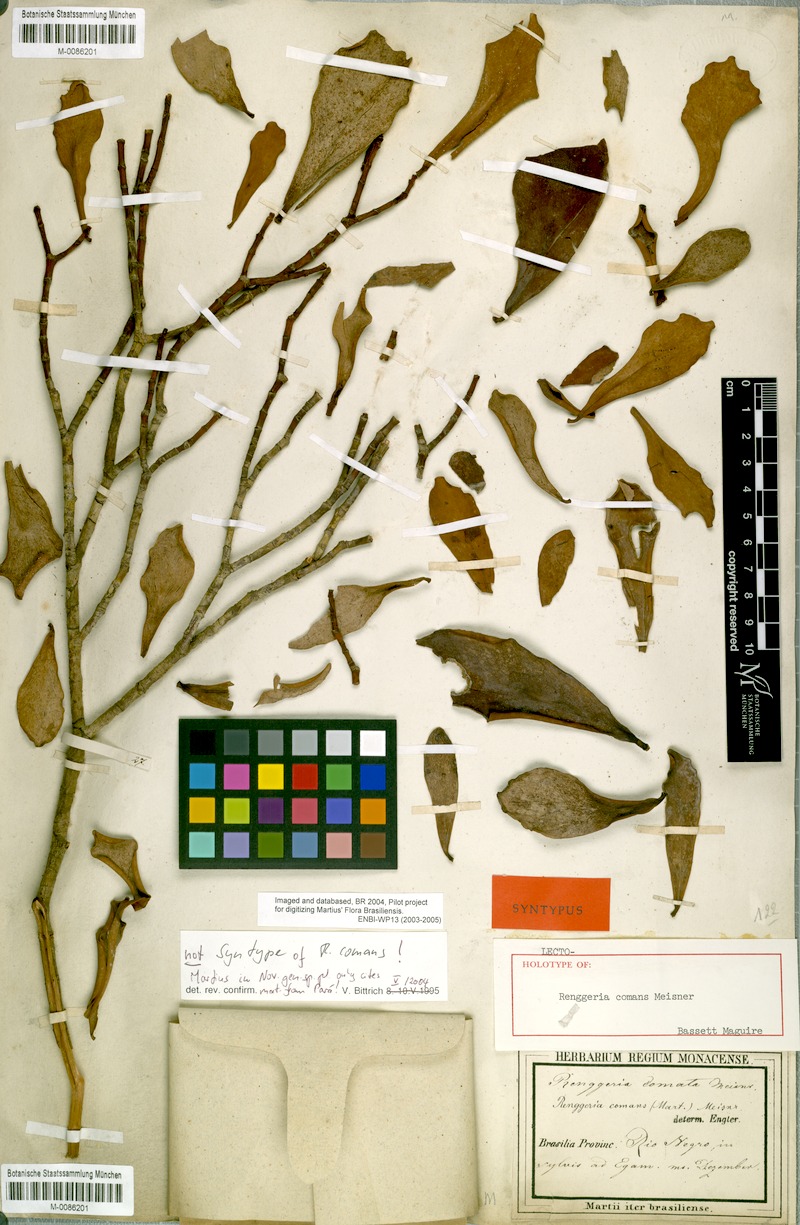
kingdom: Plantae
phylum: Tracheophyta
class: Magnoliopsida
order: Malpighiales
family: Clusiaceae
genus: Clusia
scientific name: Clusia comans
